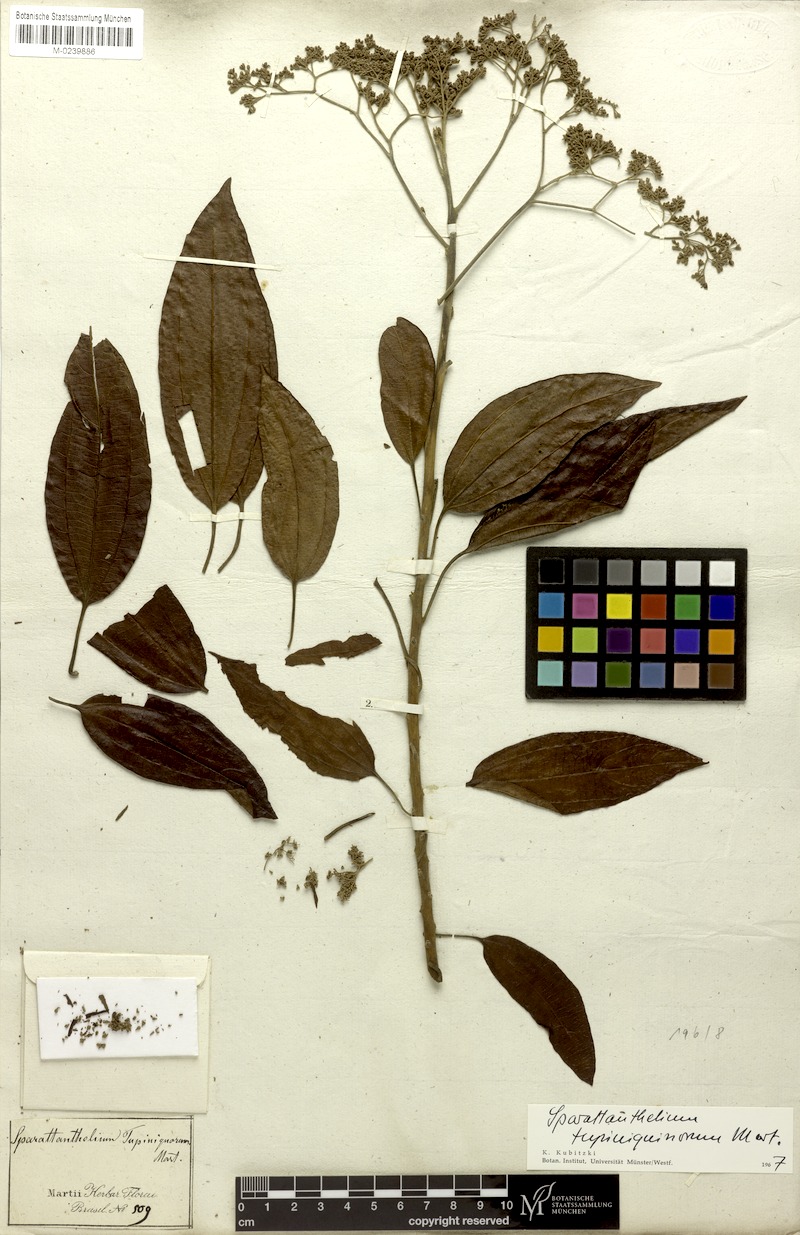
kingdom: Plantae
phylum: Tracheophyta
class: Magnoliopsida
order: Laurales
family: Hernandiaceae
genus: Sparattanthelium
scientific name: Sparattanthelium tupiniquinorum
